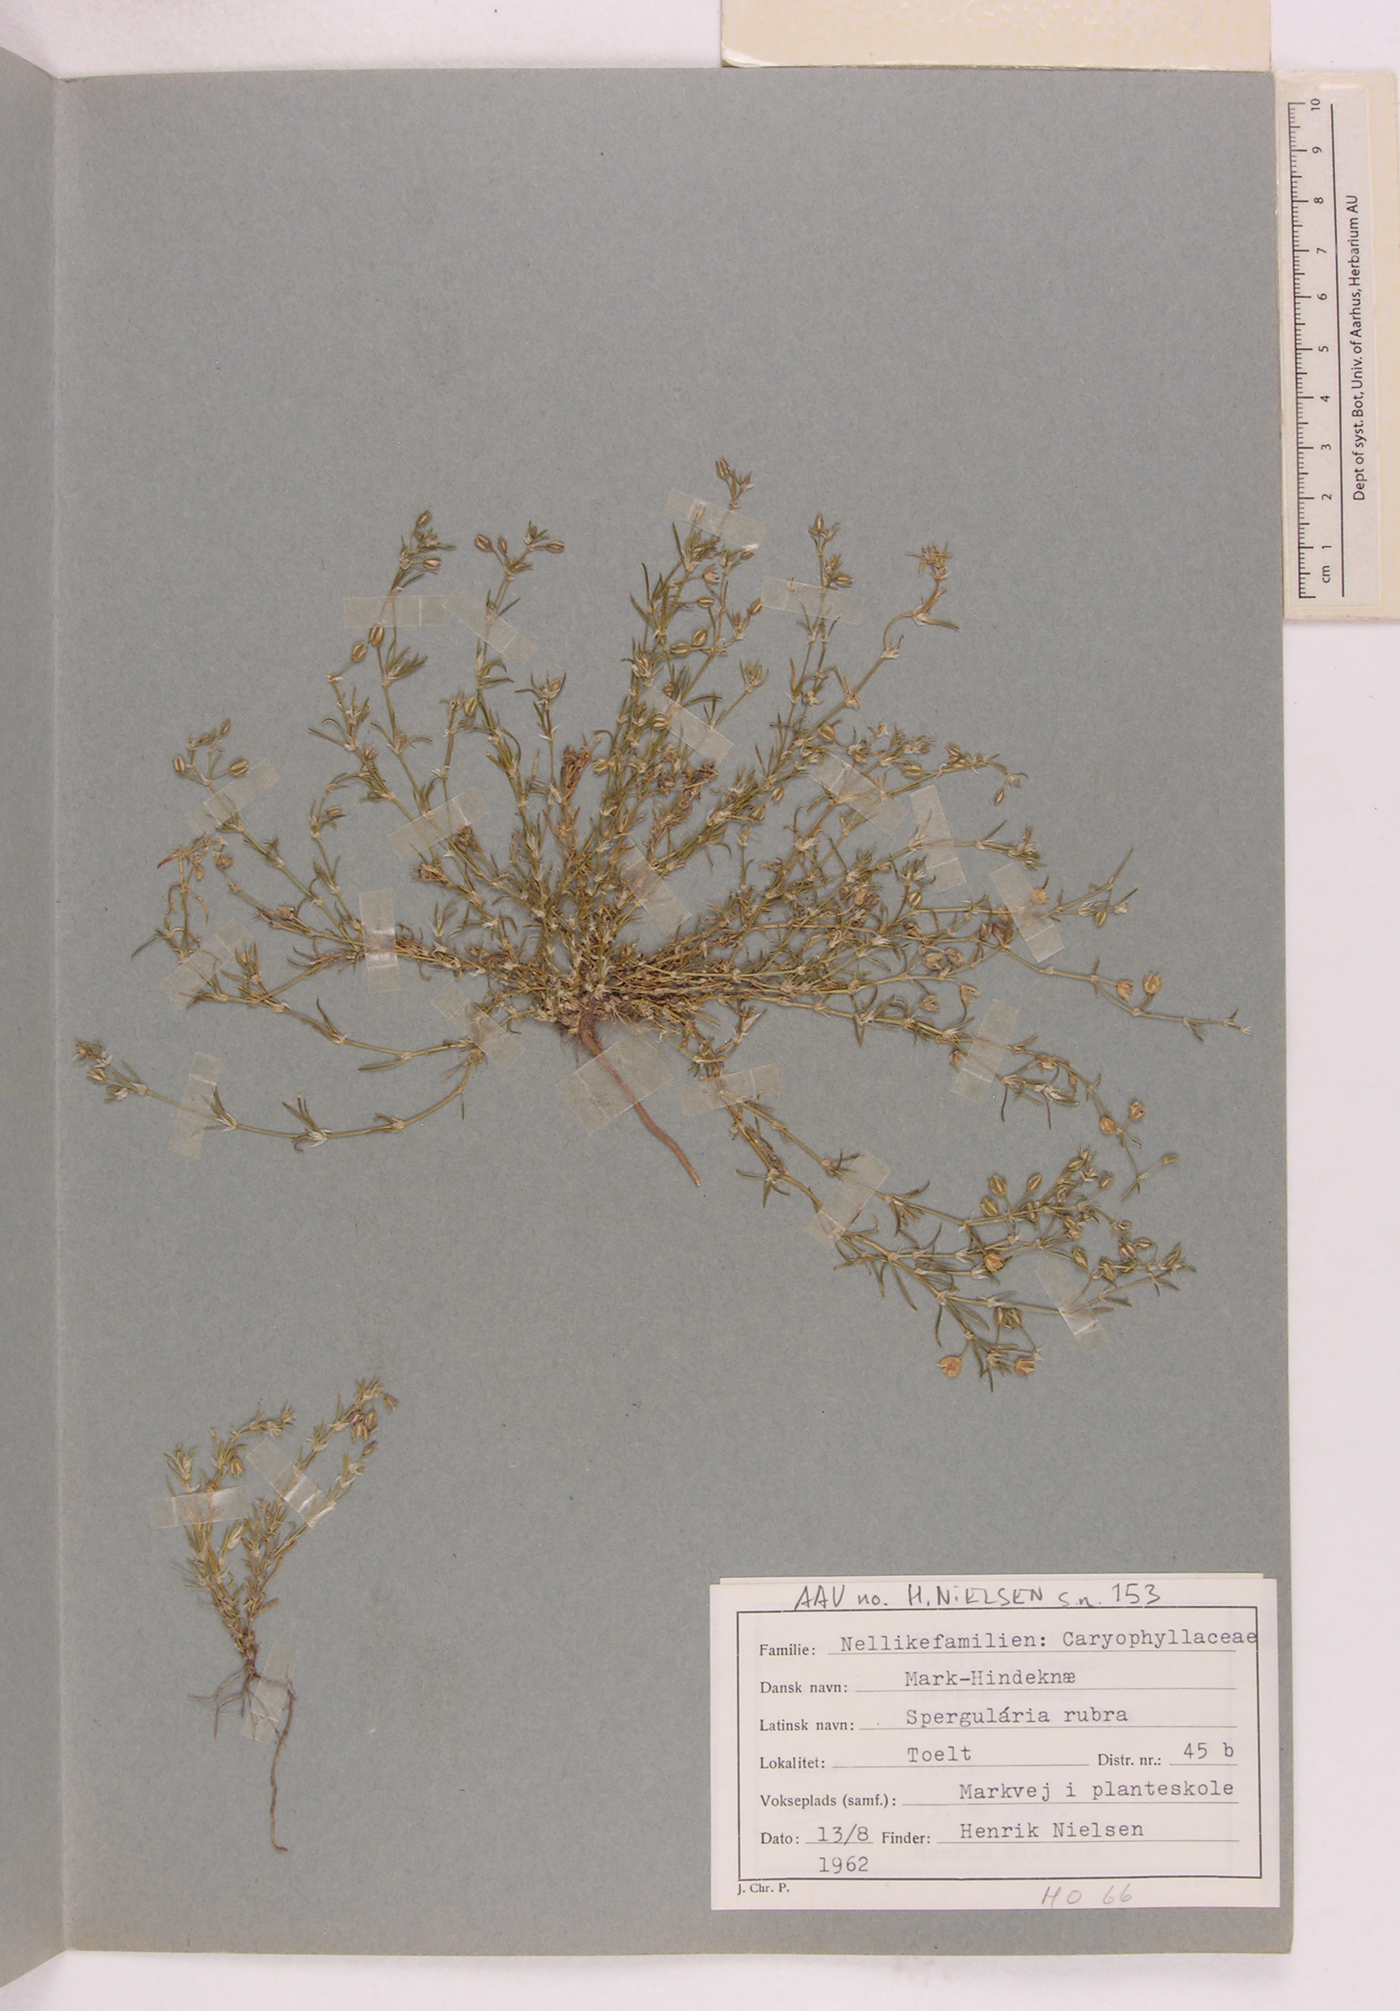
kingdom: Plantae
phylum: Tracheophyta
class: Magnoliopsida
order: Caryophyllales
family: Caryophyllaceae
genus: Spergularia
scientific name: Spergularia rubra
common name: Red sand-spurrey
